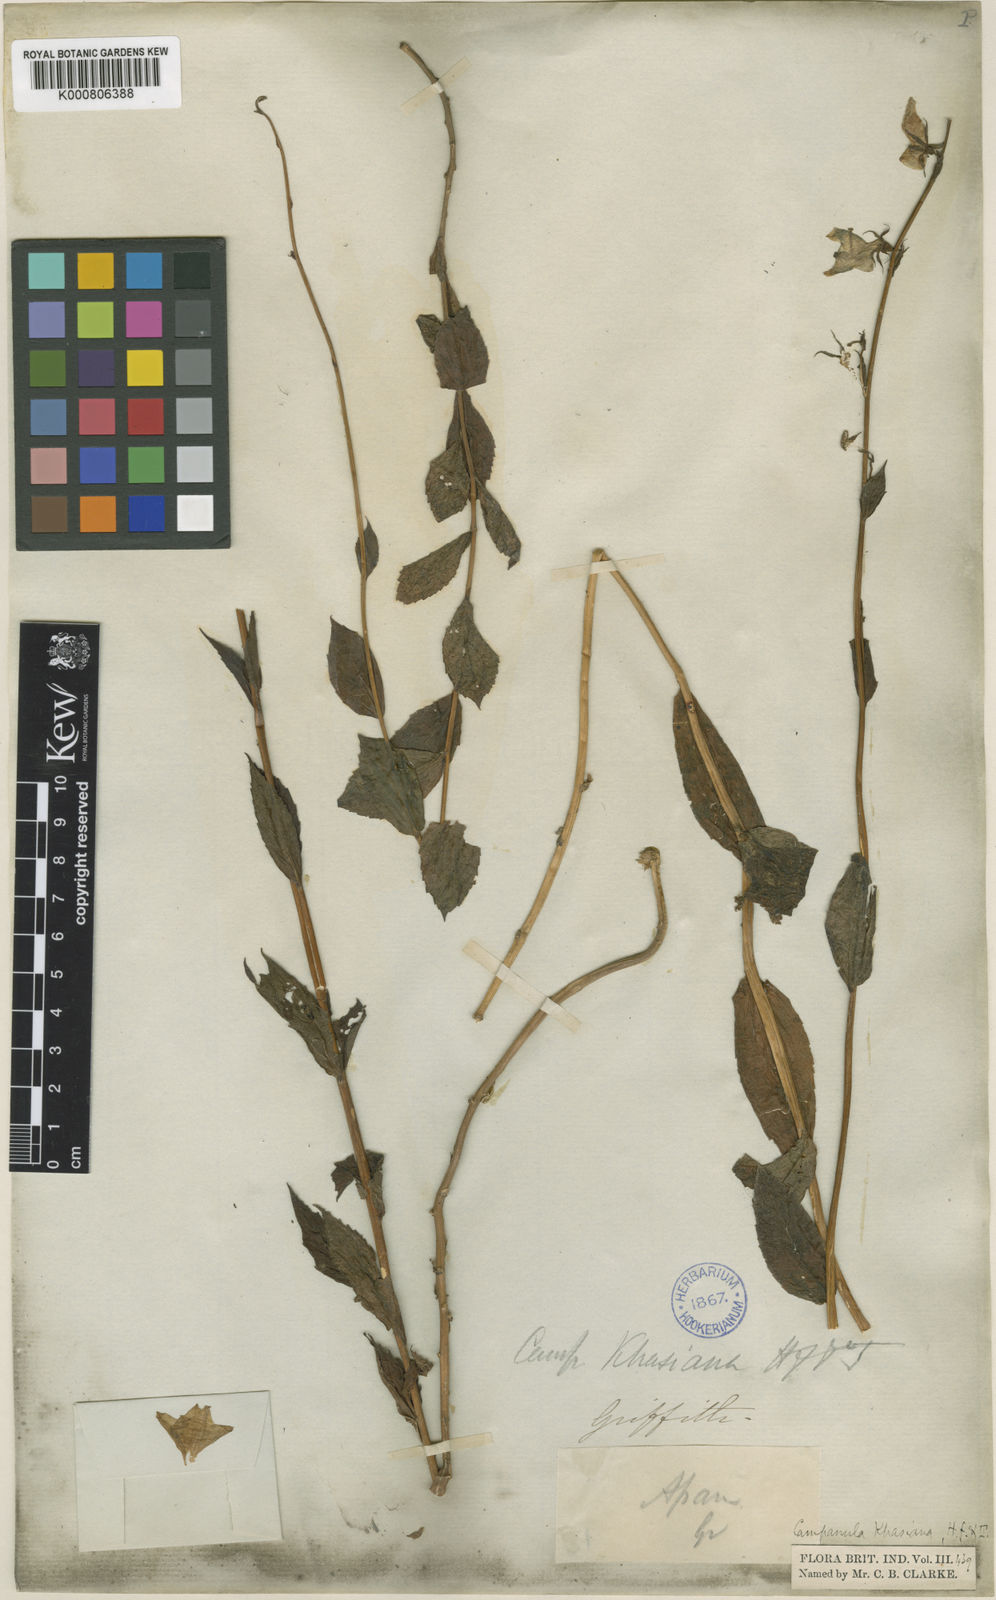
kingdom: Plantae
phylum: Tracheophyta
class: Magnoliopsida
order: Asterales
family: Campanulaceae
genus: Adenophora
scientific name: Adenophora
